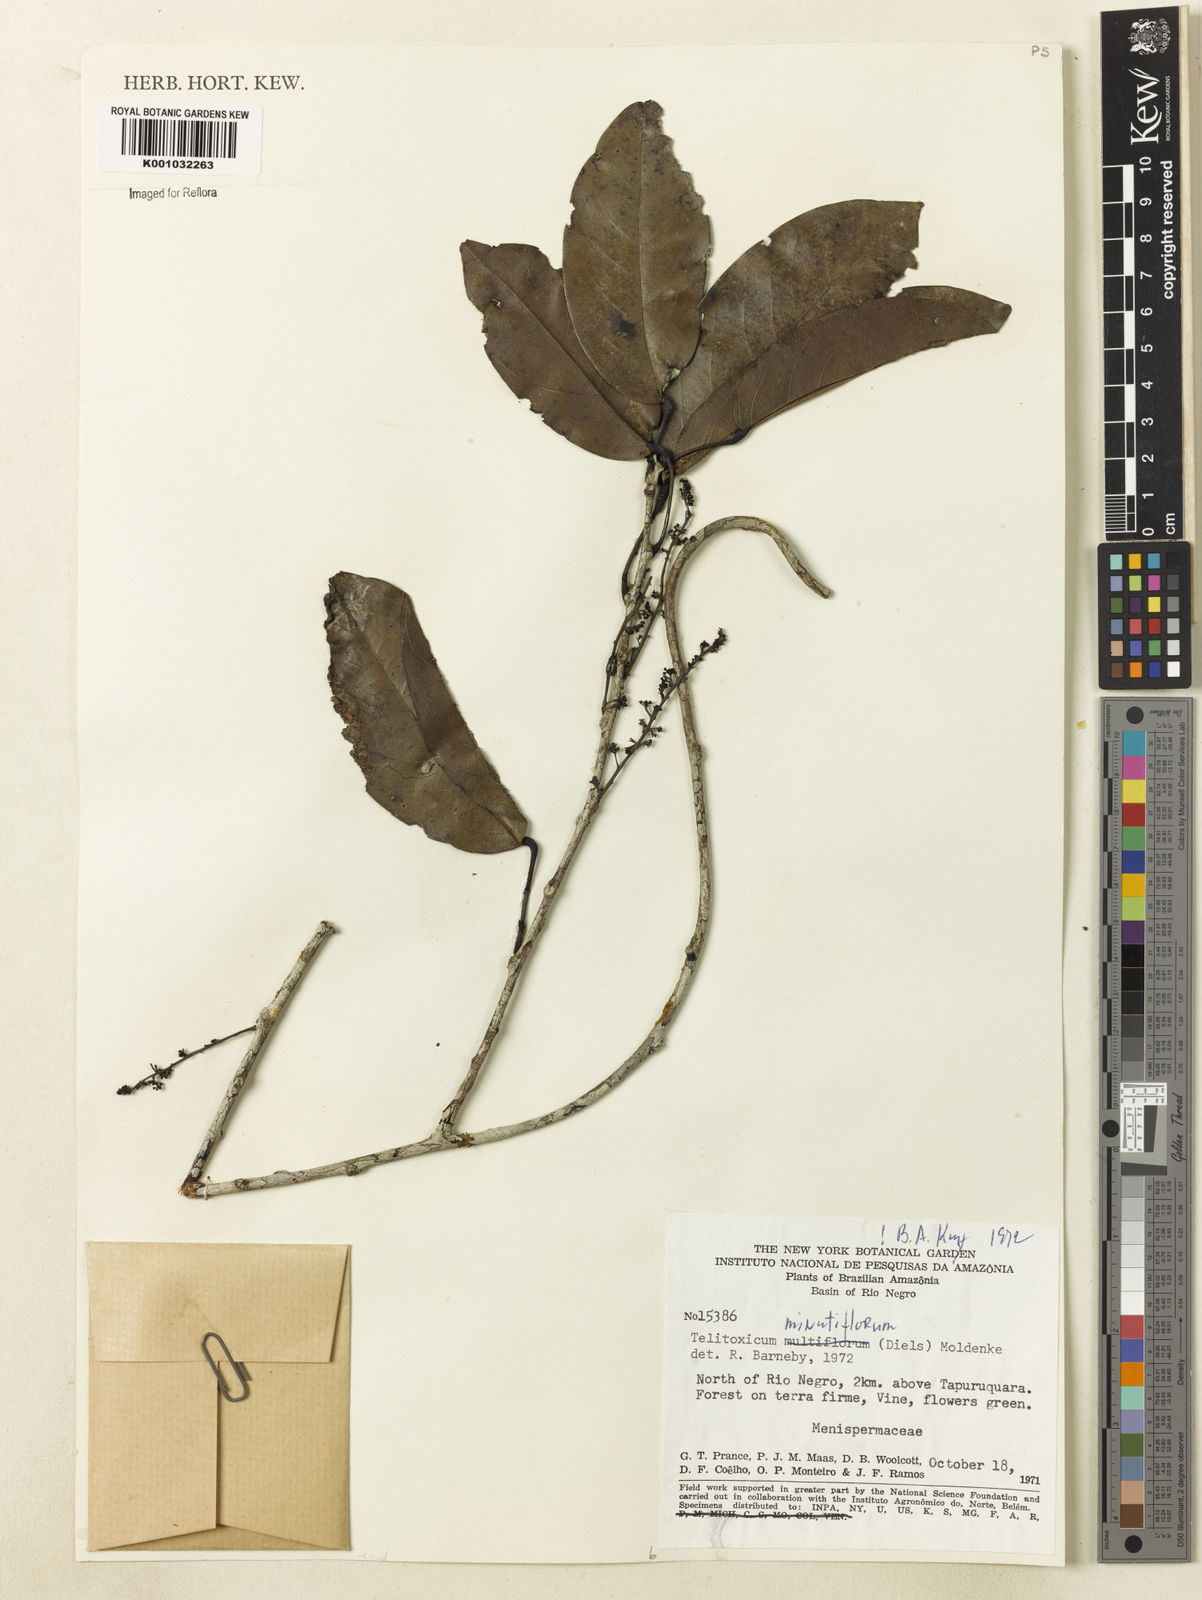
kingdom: Plantae
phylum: Tracheophyta
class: Magnoliopsida
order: Ranunculales
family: Menispermaceae
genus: Telitoxicum
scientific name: Telitoxicum minutiflorum
